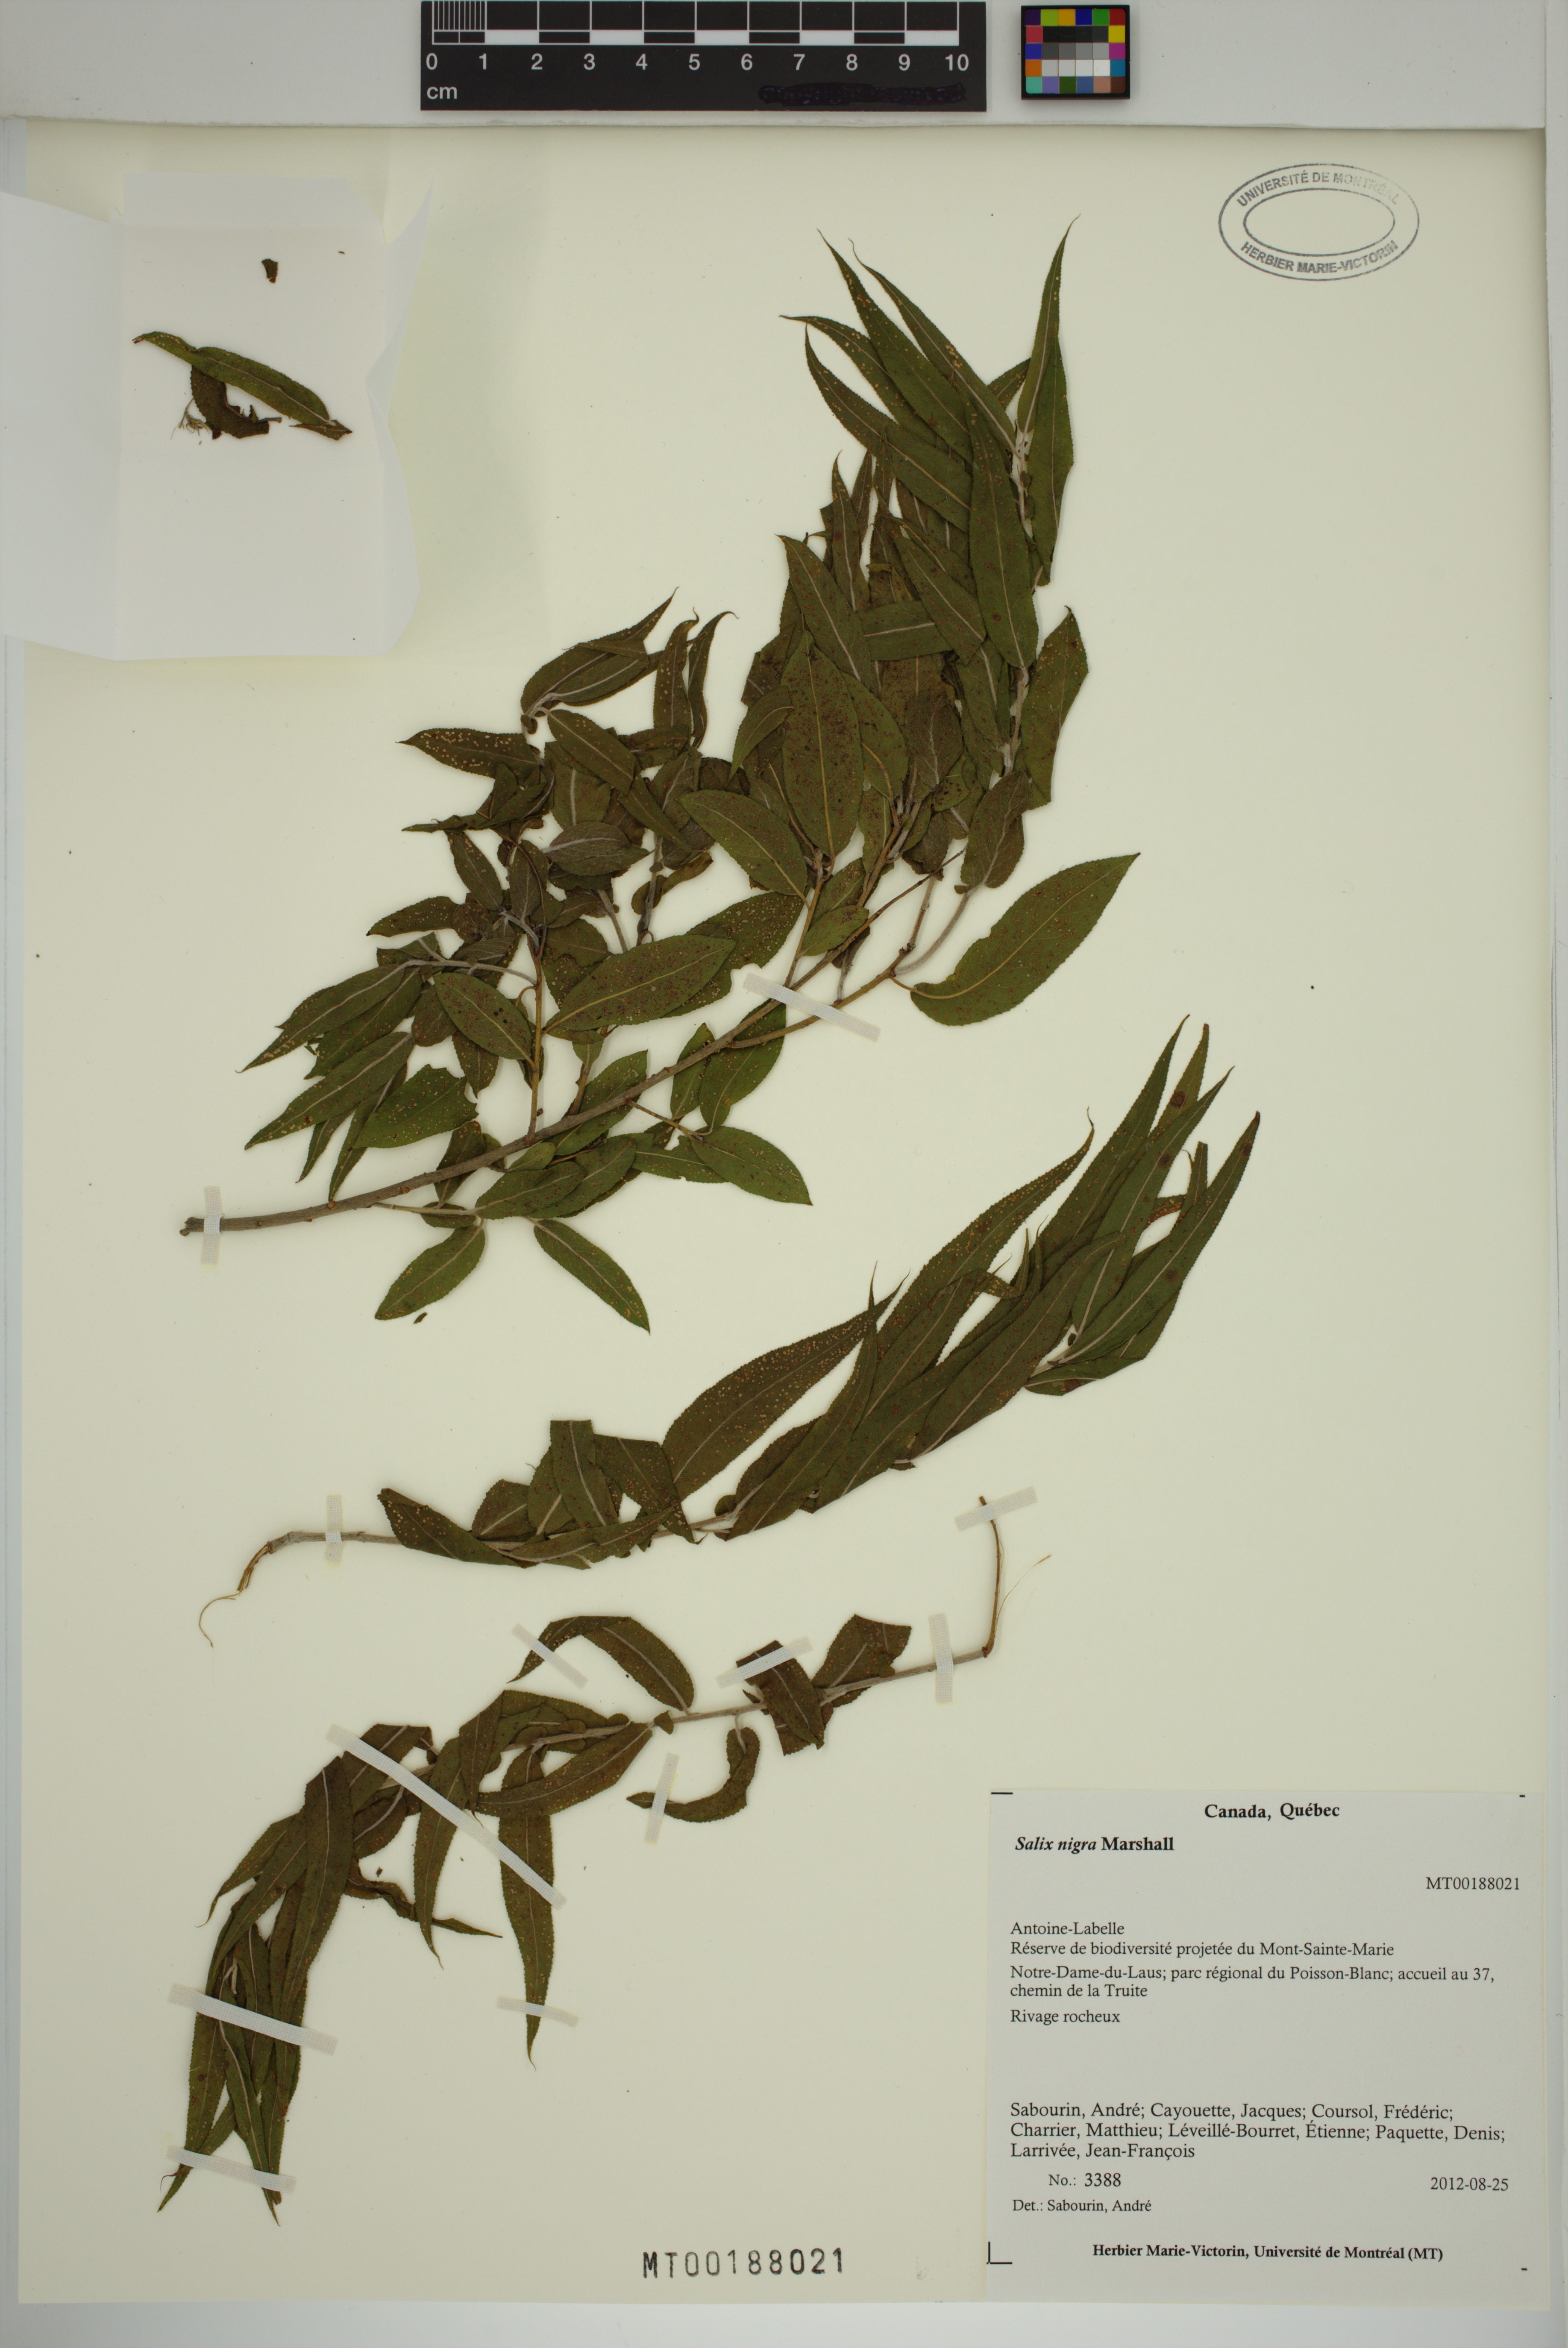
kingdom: Plantae
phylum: Tracheophyta
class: Magnoliopsida
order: Malpighiales
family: Salicaceae
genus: Salix
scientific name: Salix nigra
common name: Black willow
